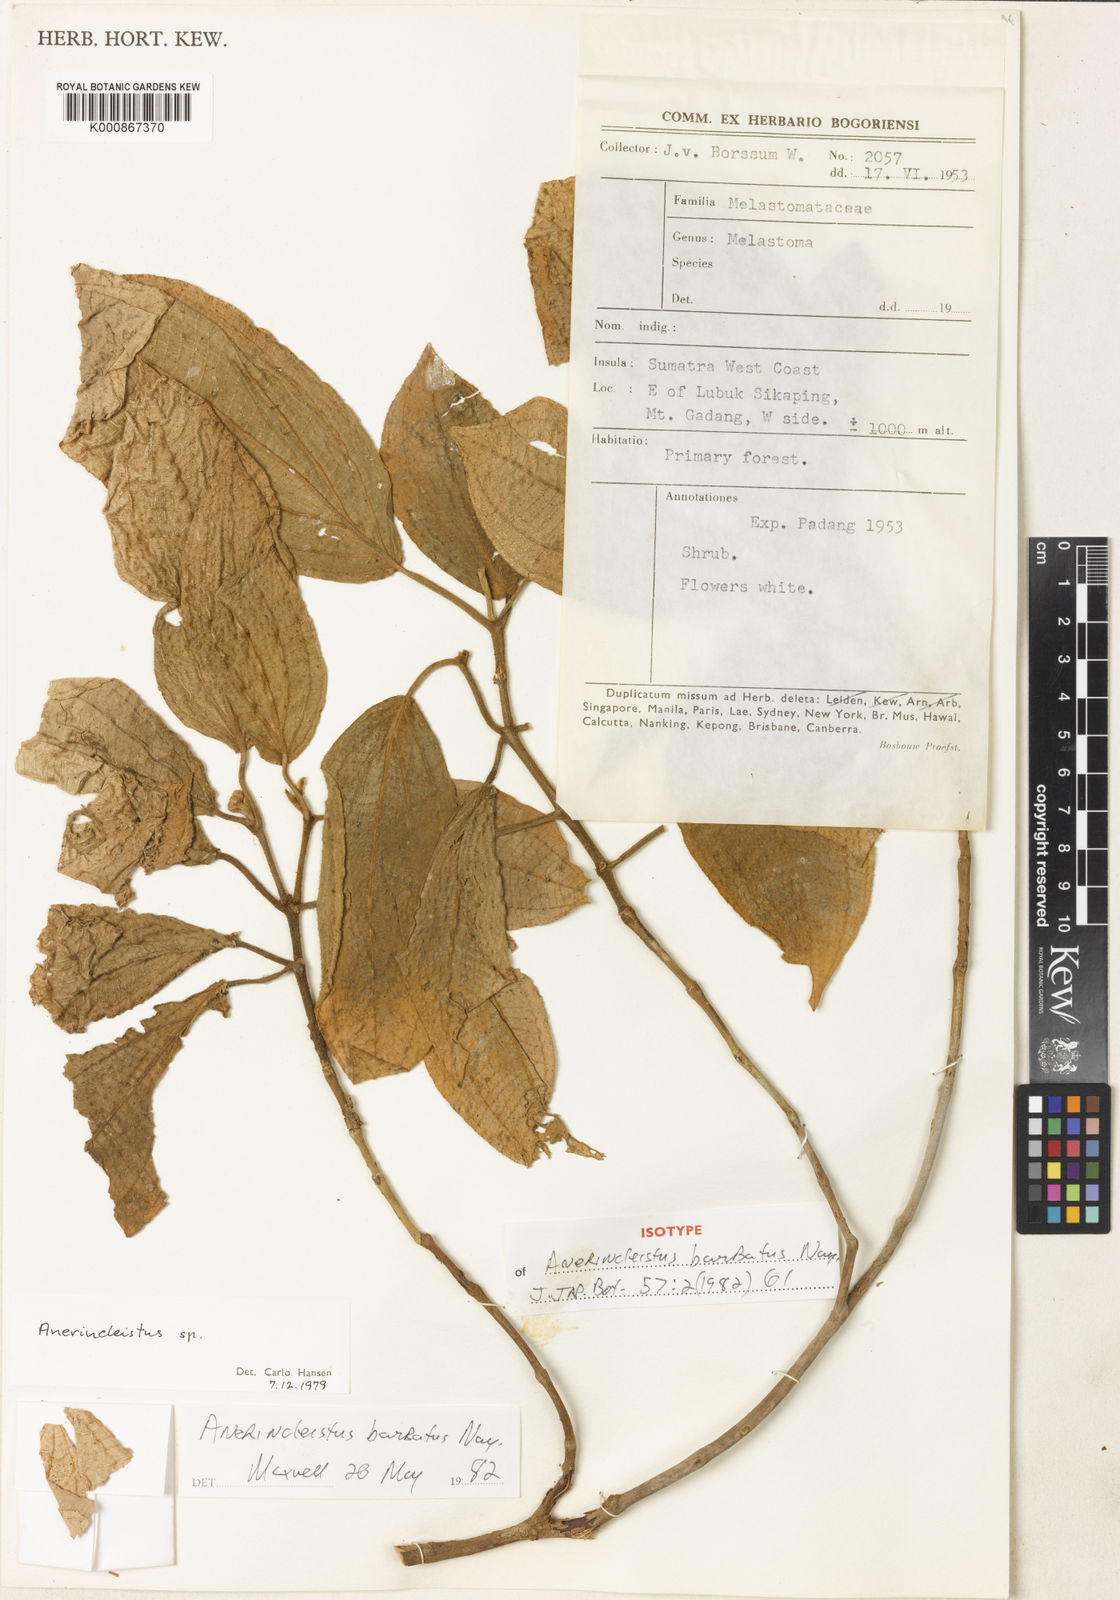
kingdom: Plantae
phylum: Tracheophyta
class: Magnoliopsida
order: Myrtales
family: Melastomataceae
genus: Anerincleistus
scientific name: Anerincleistus barbatus
